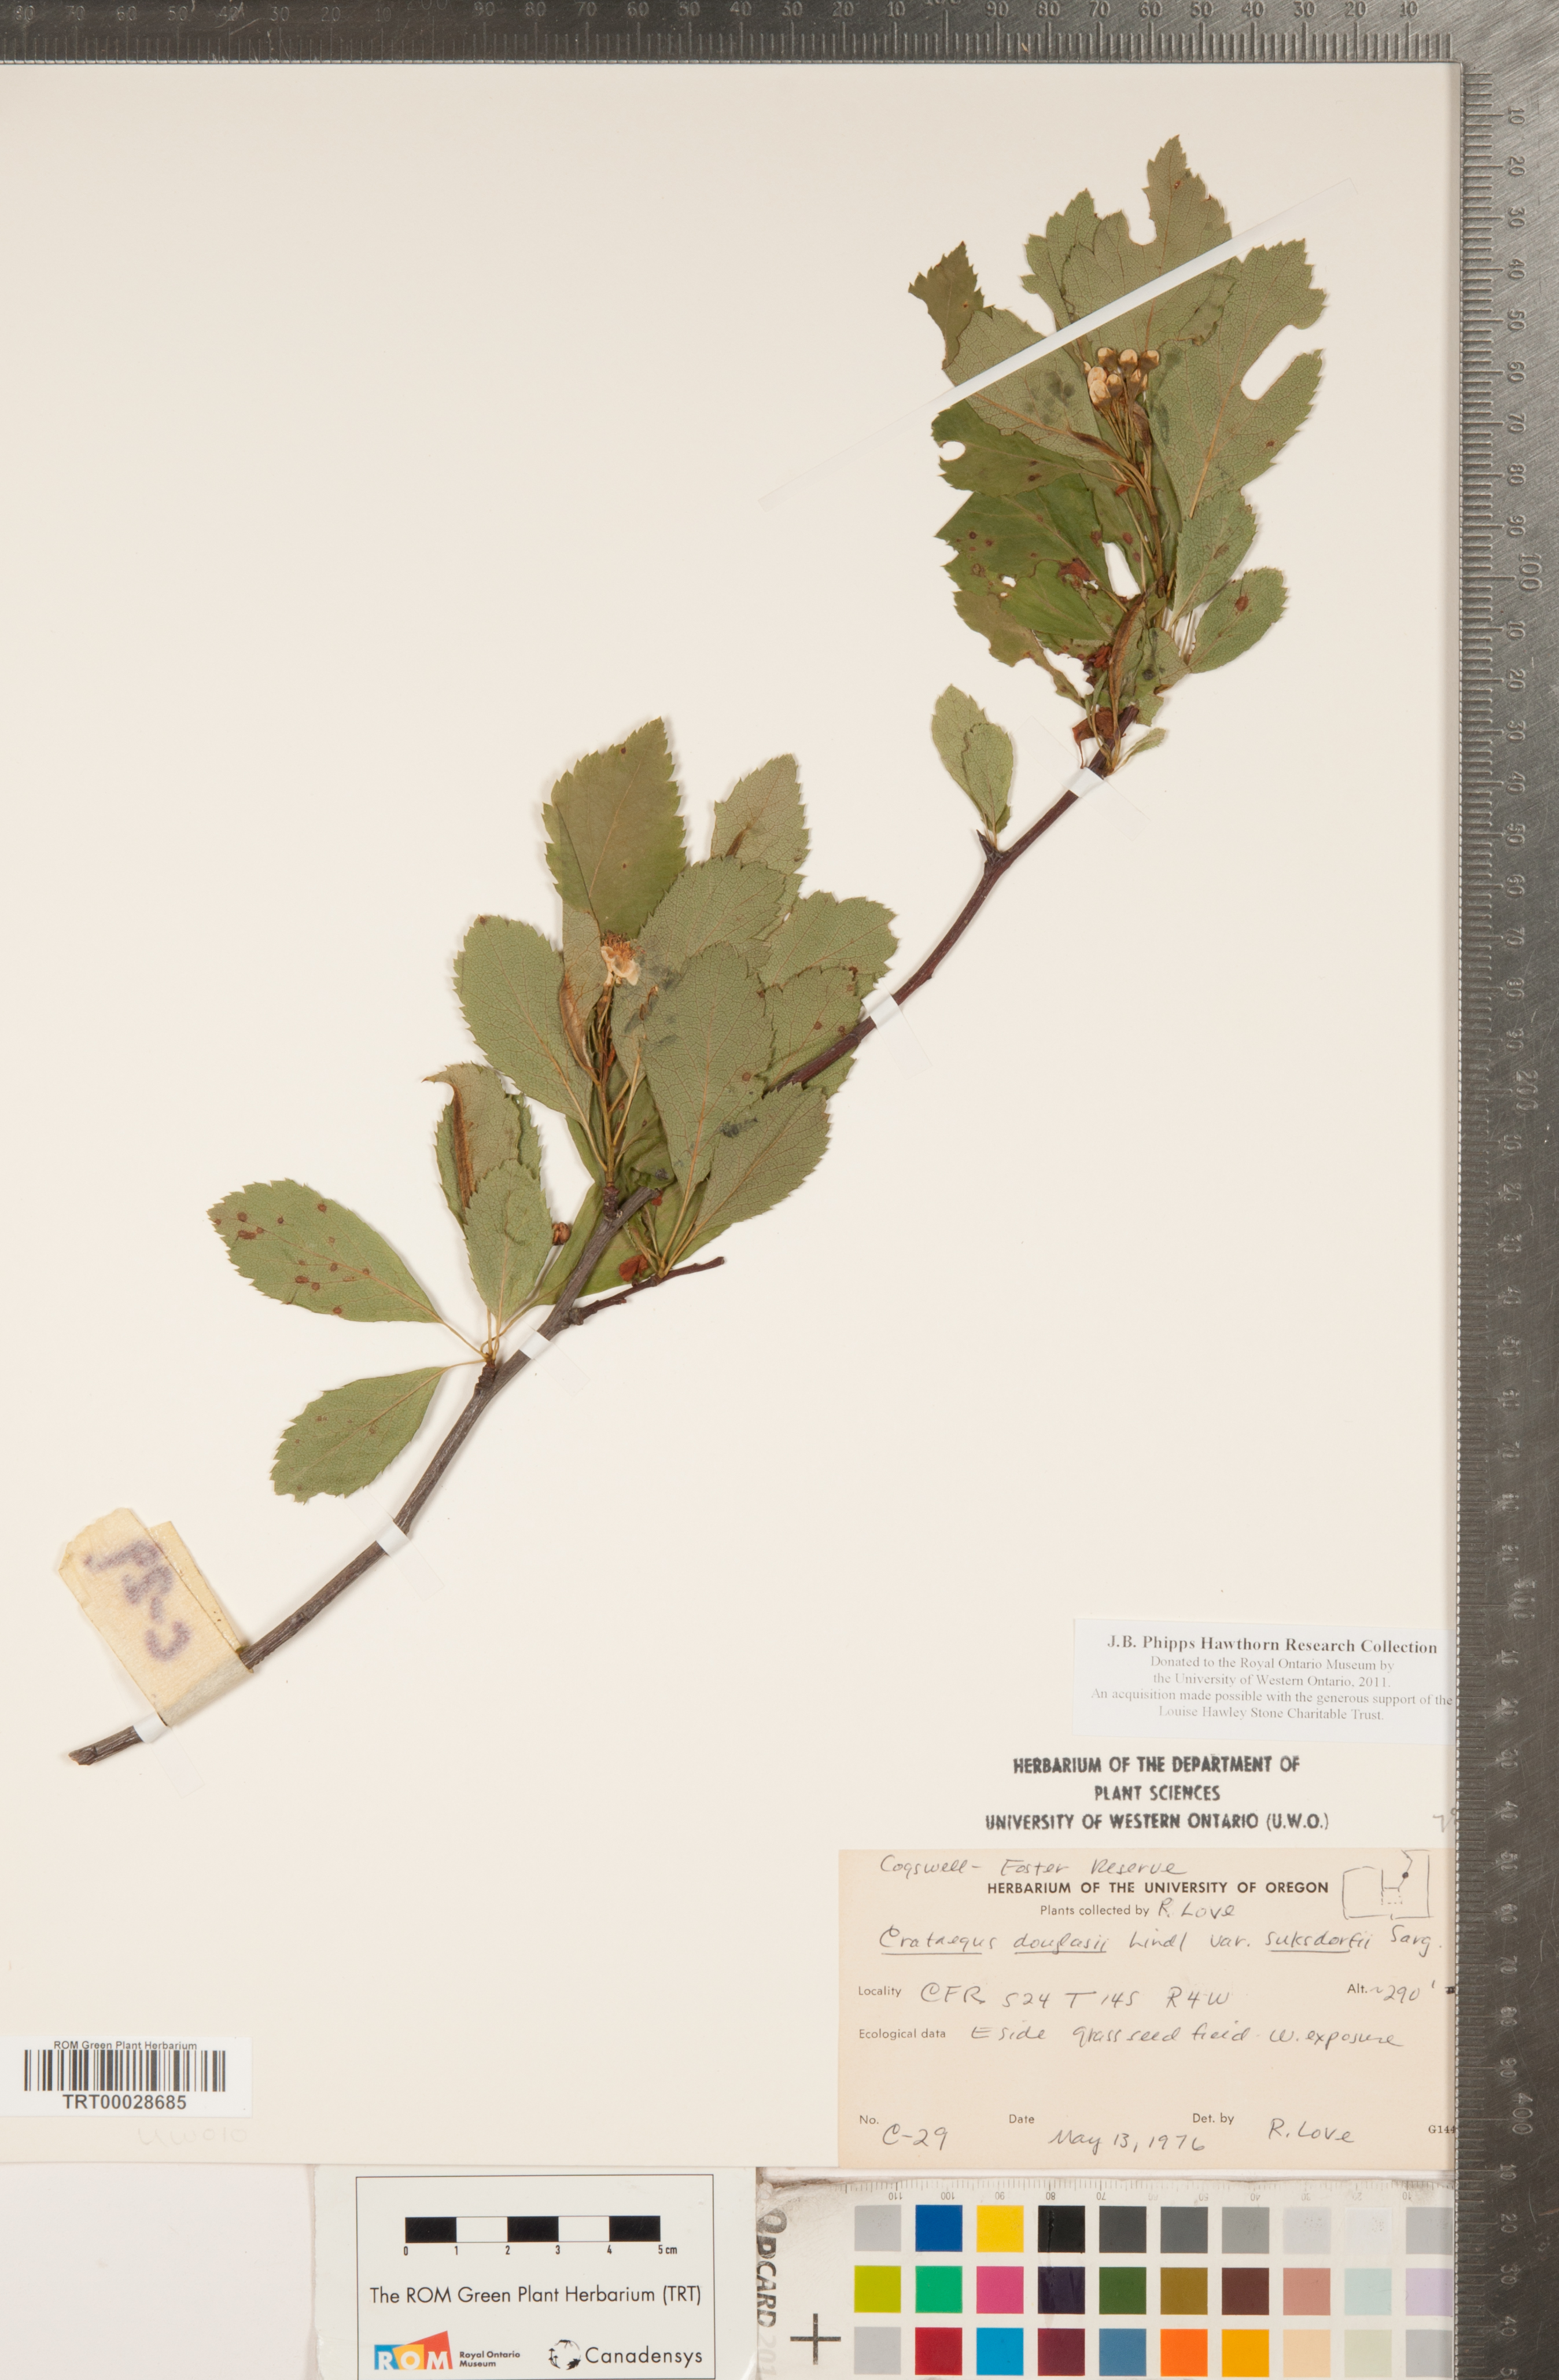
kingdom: Plantae
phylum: Tracheophyta
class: Magnoliopsida
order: Rosales
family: Rosaceae
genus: Crataegus
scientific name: Crataegus gaylussacia
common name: Huckleberry hawthorn
